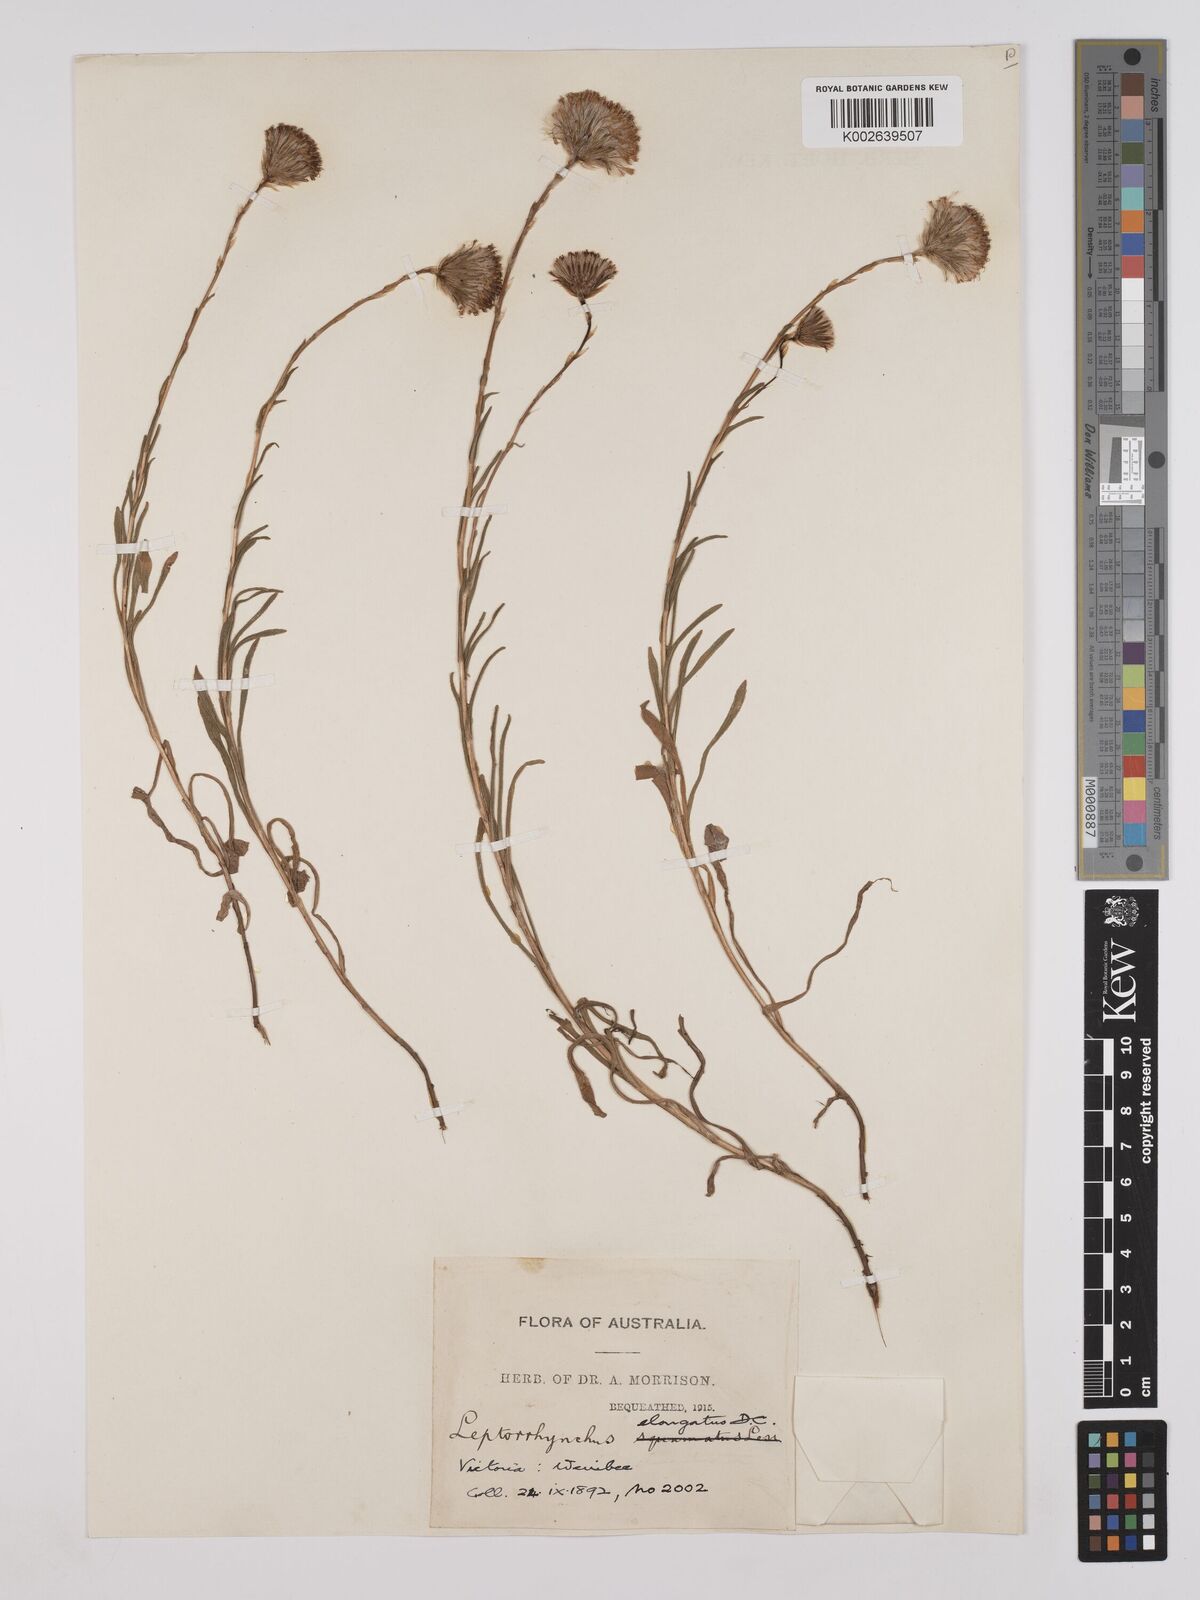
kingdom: Plantae
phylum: Tracheophyta
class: Magnoliopsida
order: Asterales
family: Asteraceae
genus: Leptorhynchos
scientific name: Leptorhynchos elongatus
